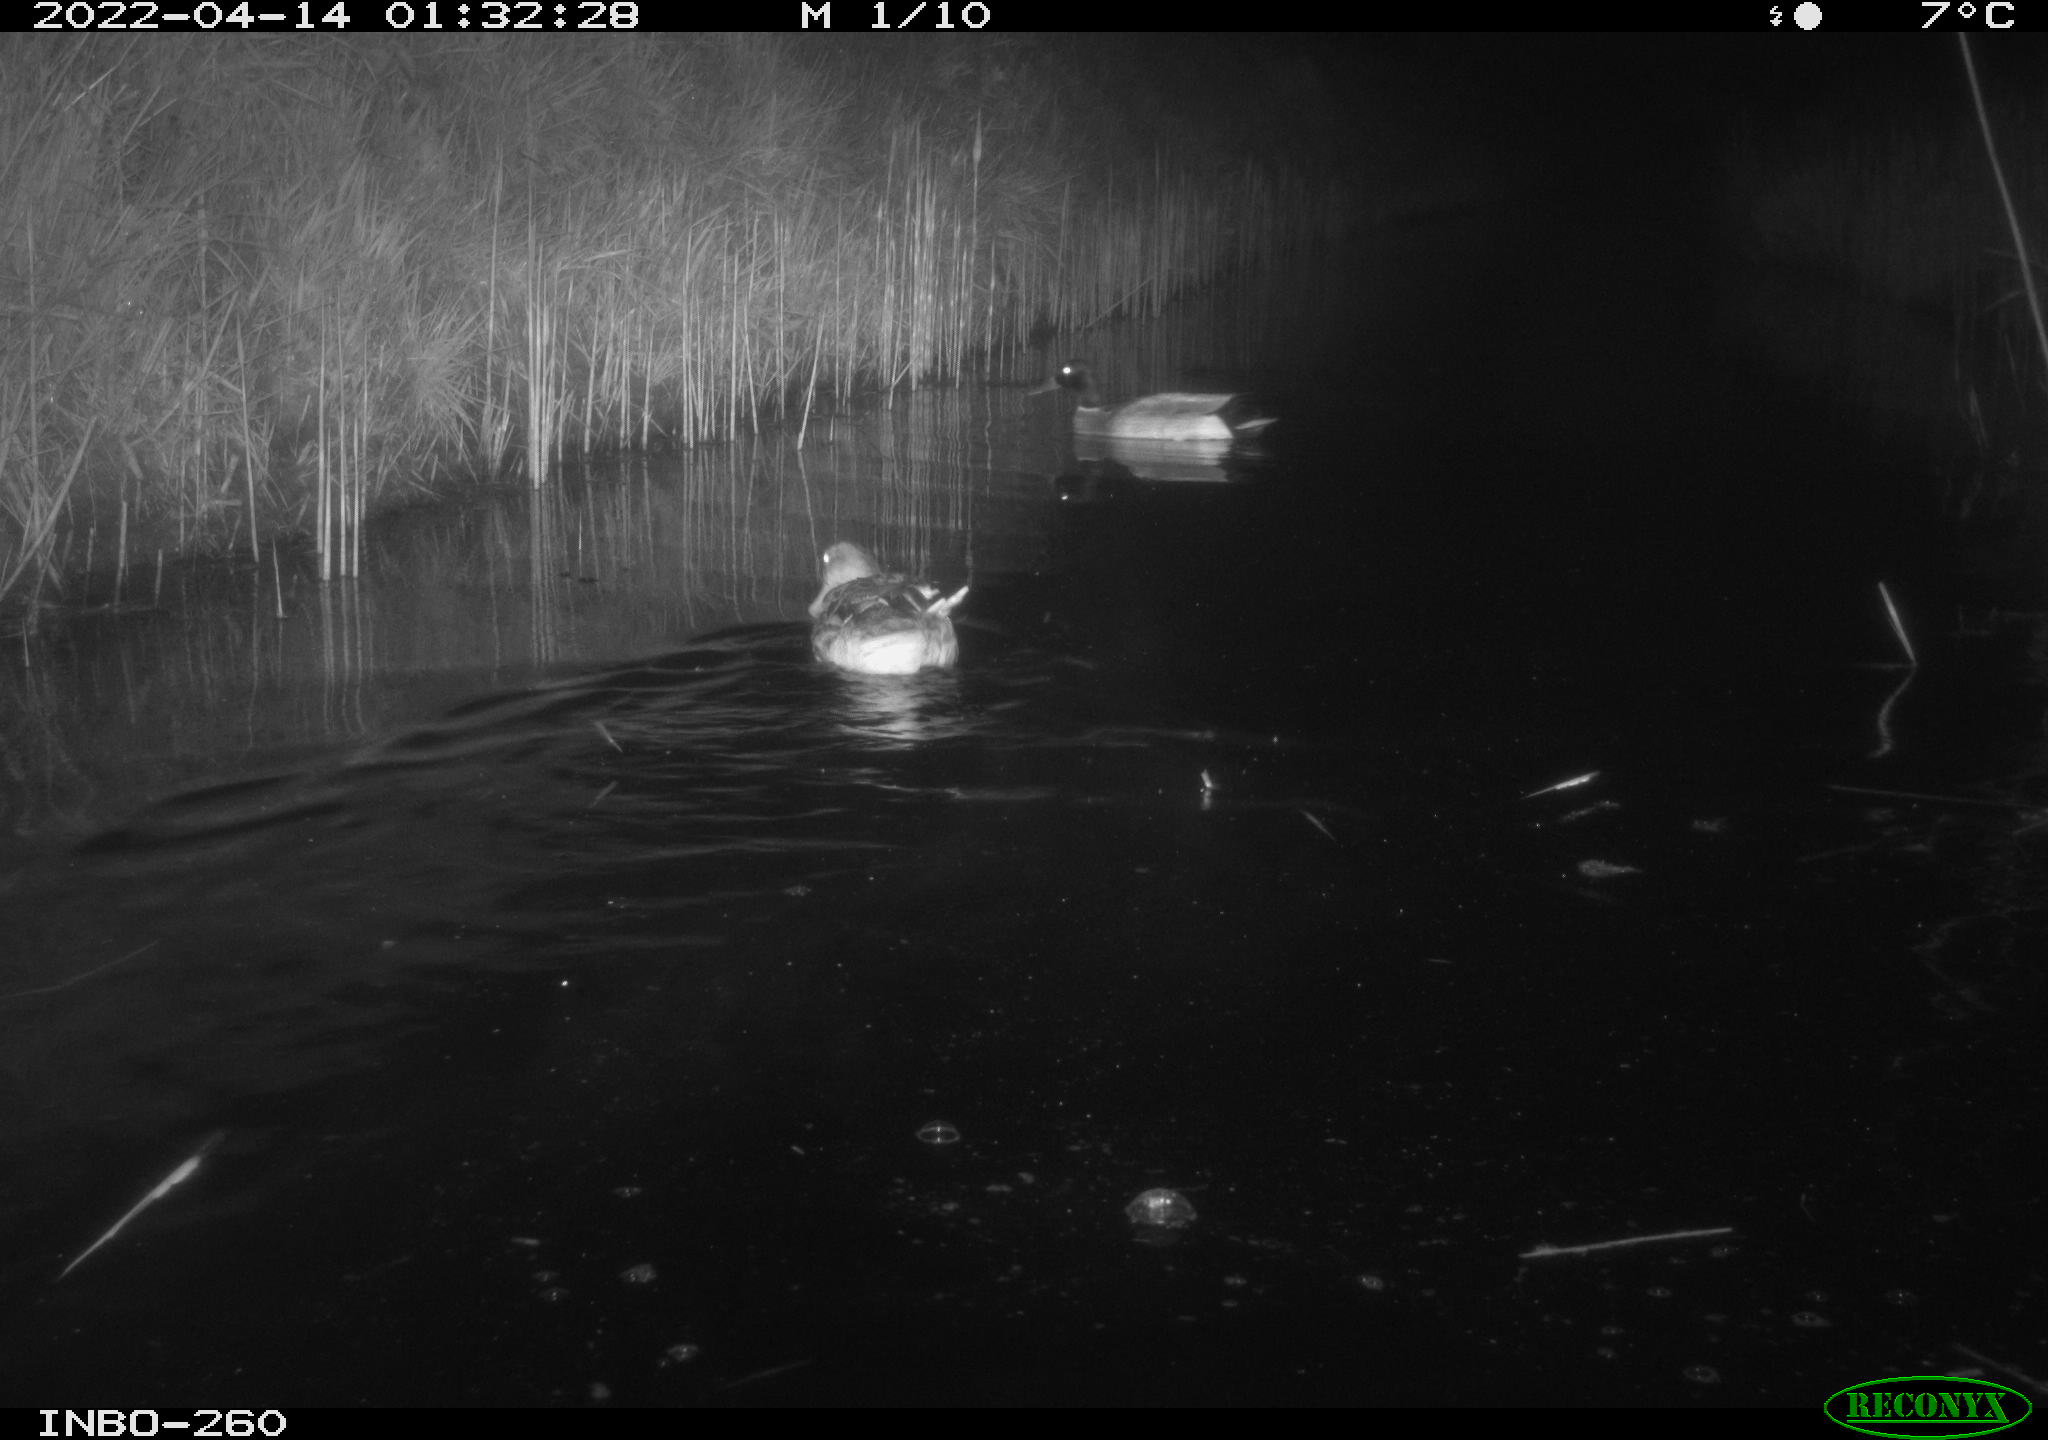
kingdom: Animalia
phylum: Chordata
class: Aves
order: Anseriformes
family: Anatidae
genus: Anas
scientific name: Anas platyrhynchos
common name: Mallard
